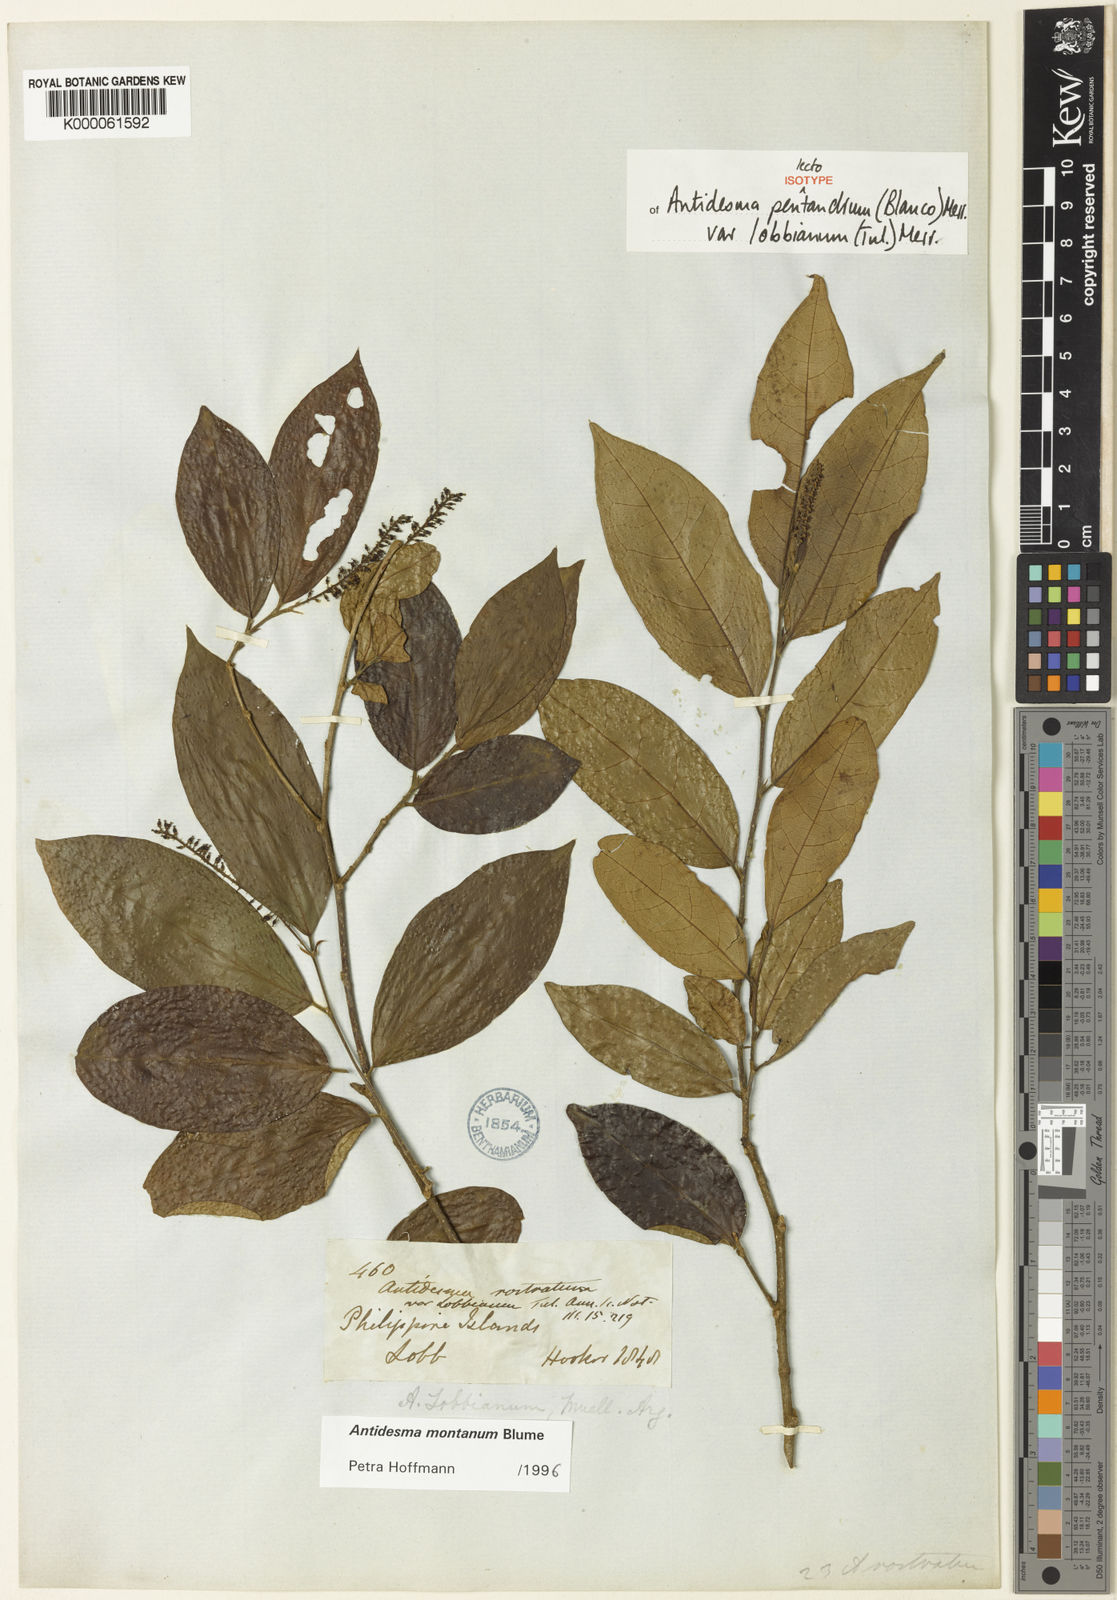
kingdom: Plantae
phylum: Tracheophyta
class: Magnoliopsida
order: Malpighiales
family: Phyllanthaceae
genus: Antidesma
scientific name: Antidesma montanum
